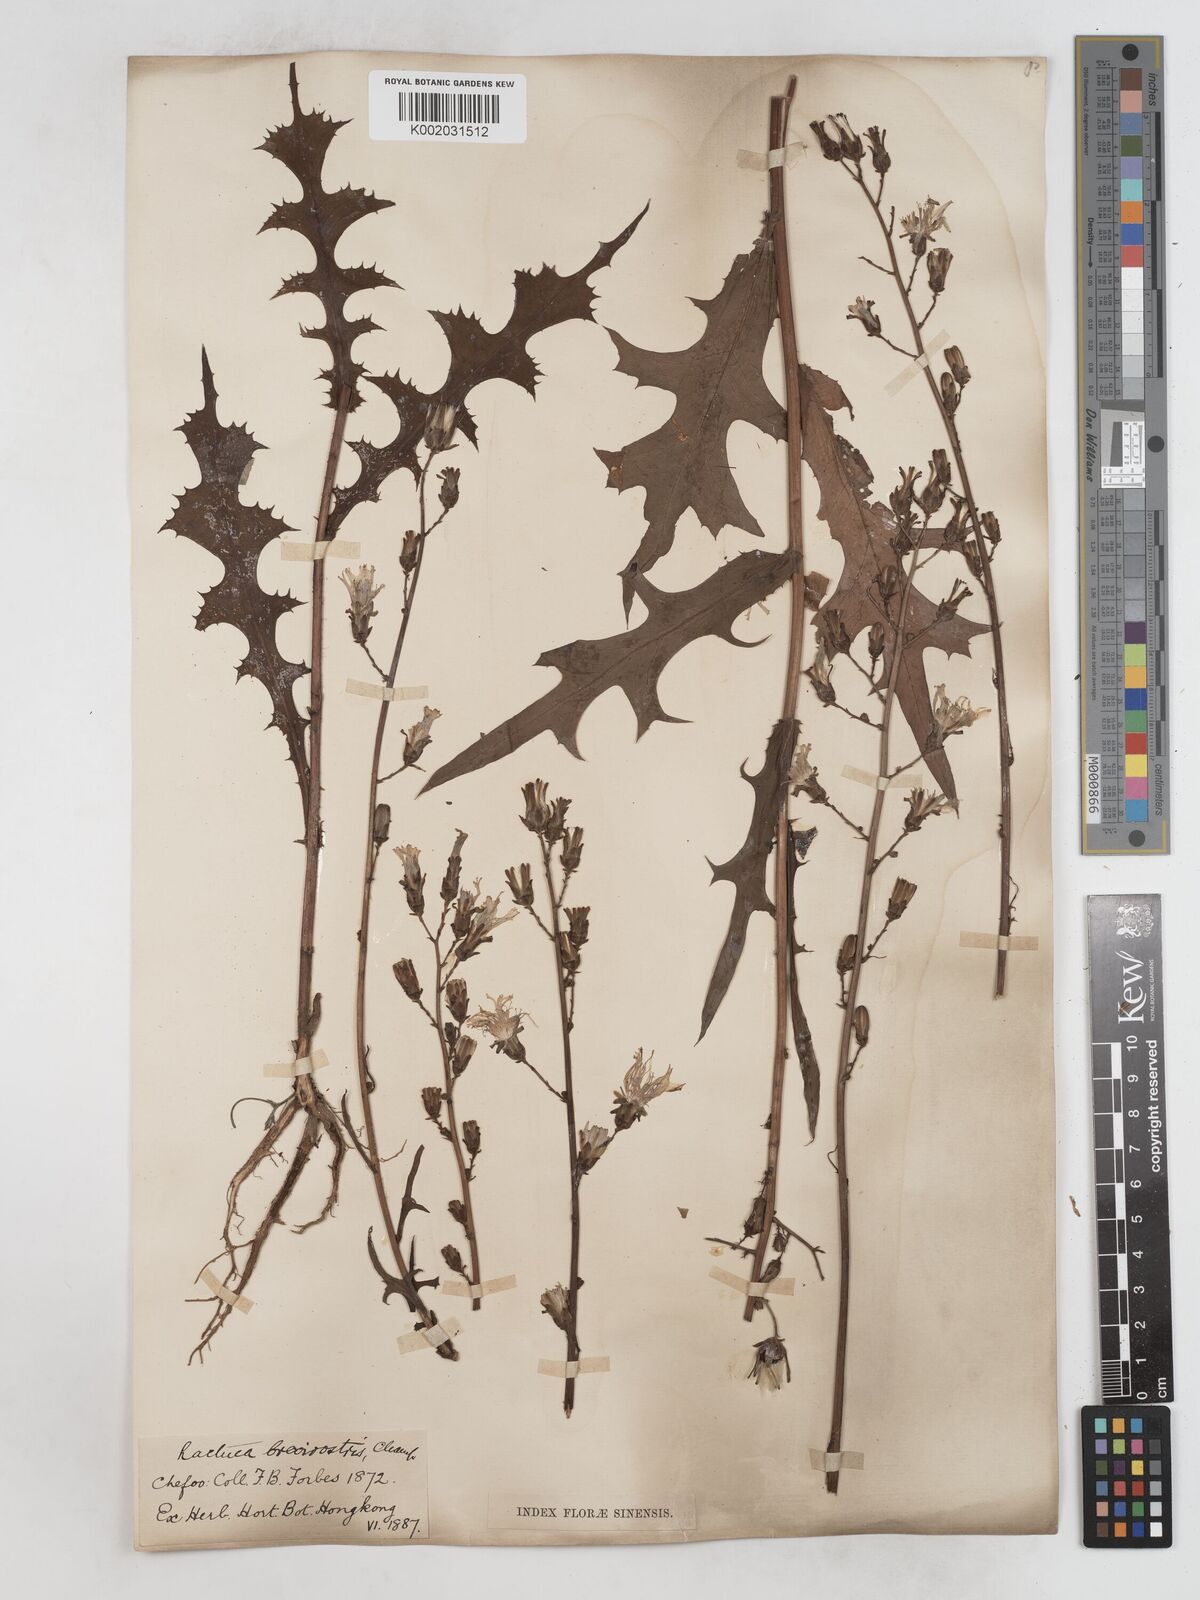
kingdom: Plantae
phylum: Tracheophyta
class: Magnoliopsida
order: Asterales
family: Asteraceae
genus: Lactuca
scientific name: Lactuca
